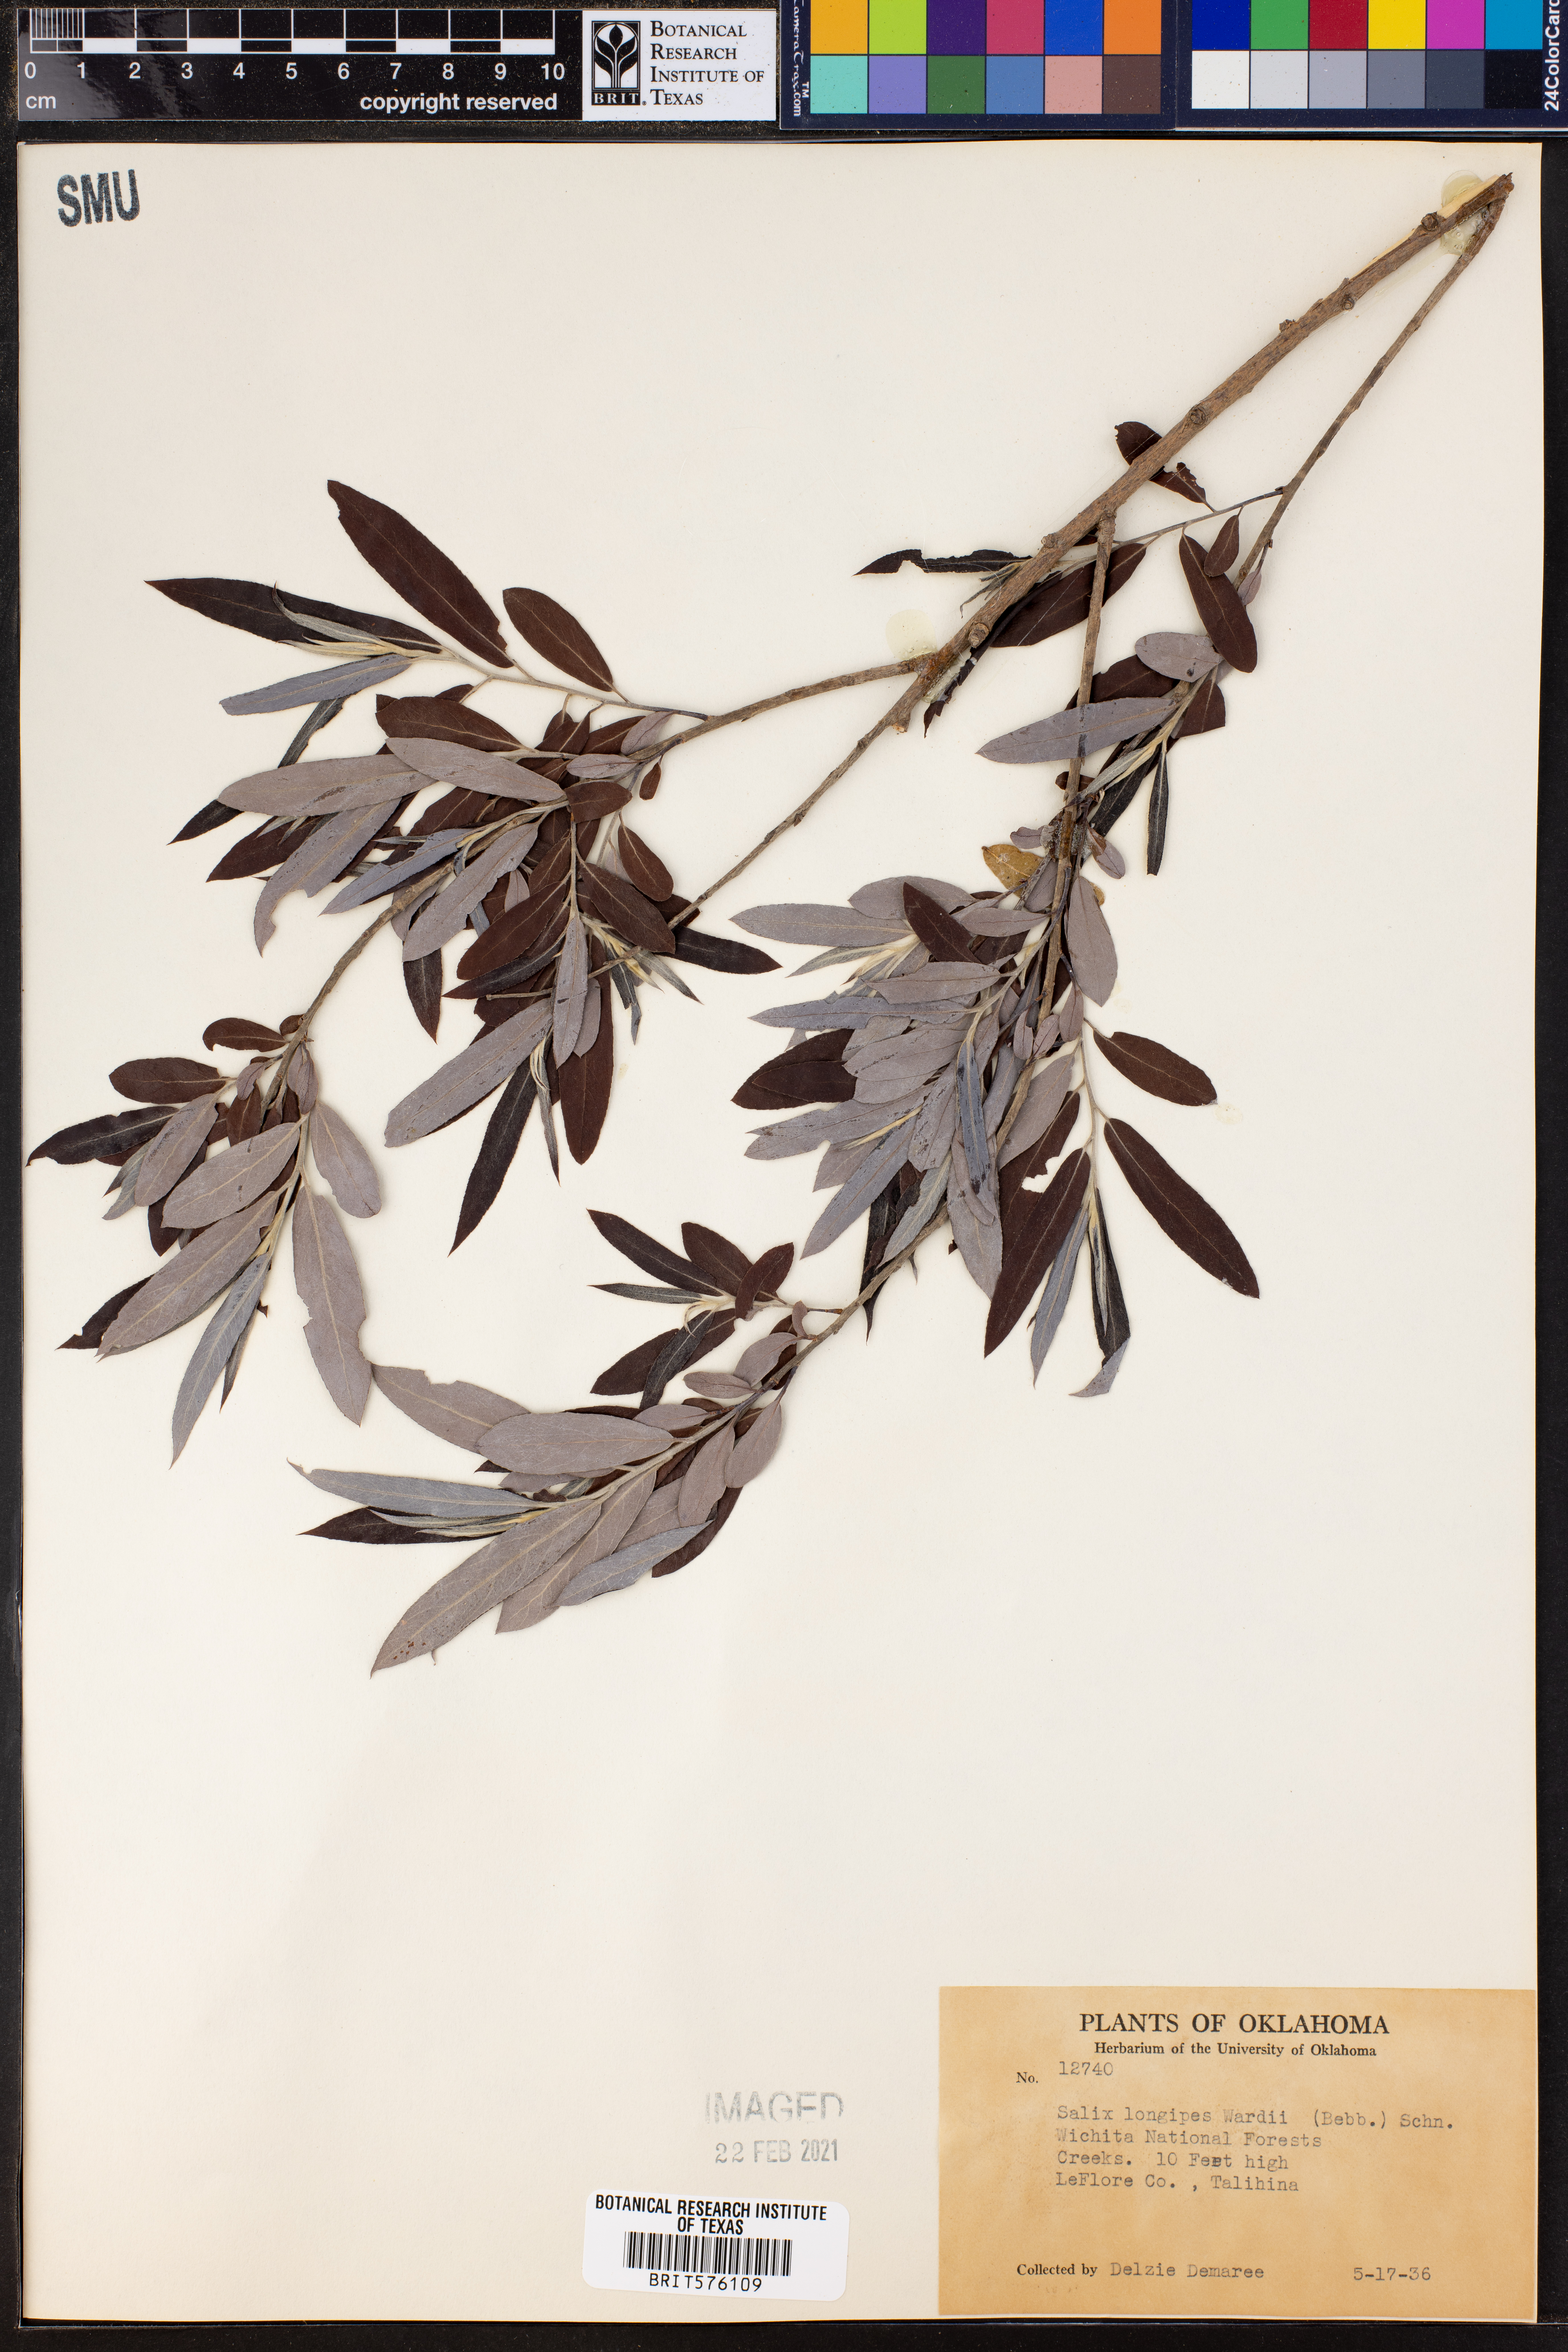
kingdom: Plantae
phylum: Tracheophyta
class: Magnoliopsida
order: Malpighiales
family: Salicaceae
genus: Salix
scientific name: Salix fruticulosa
